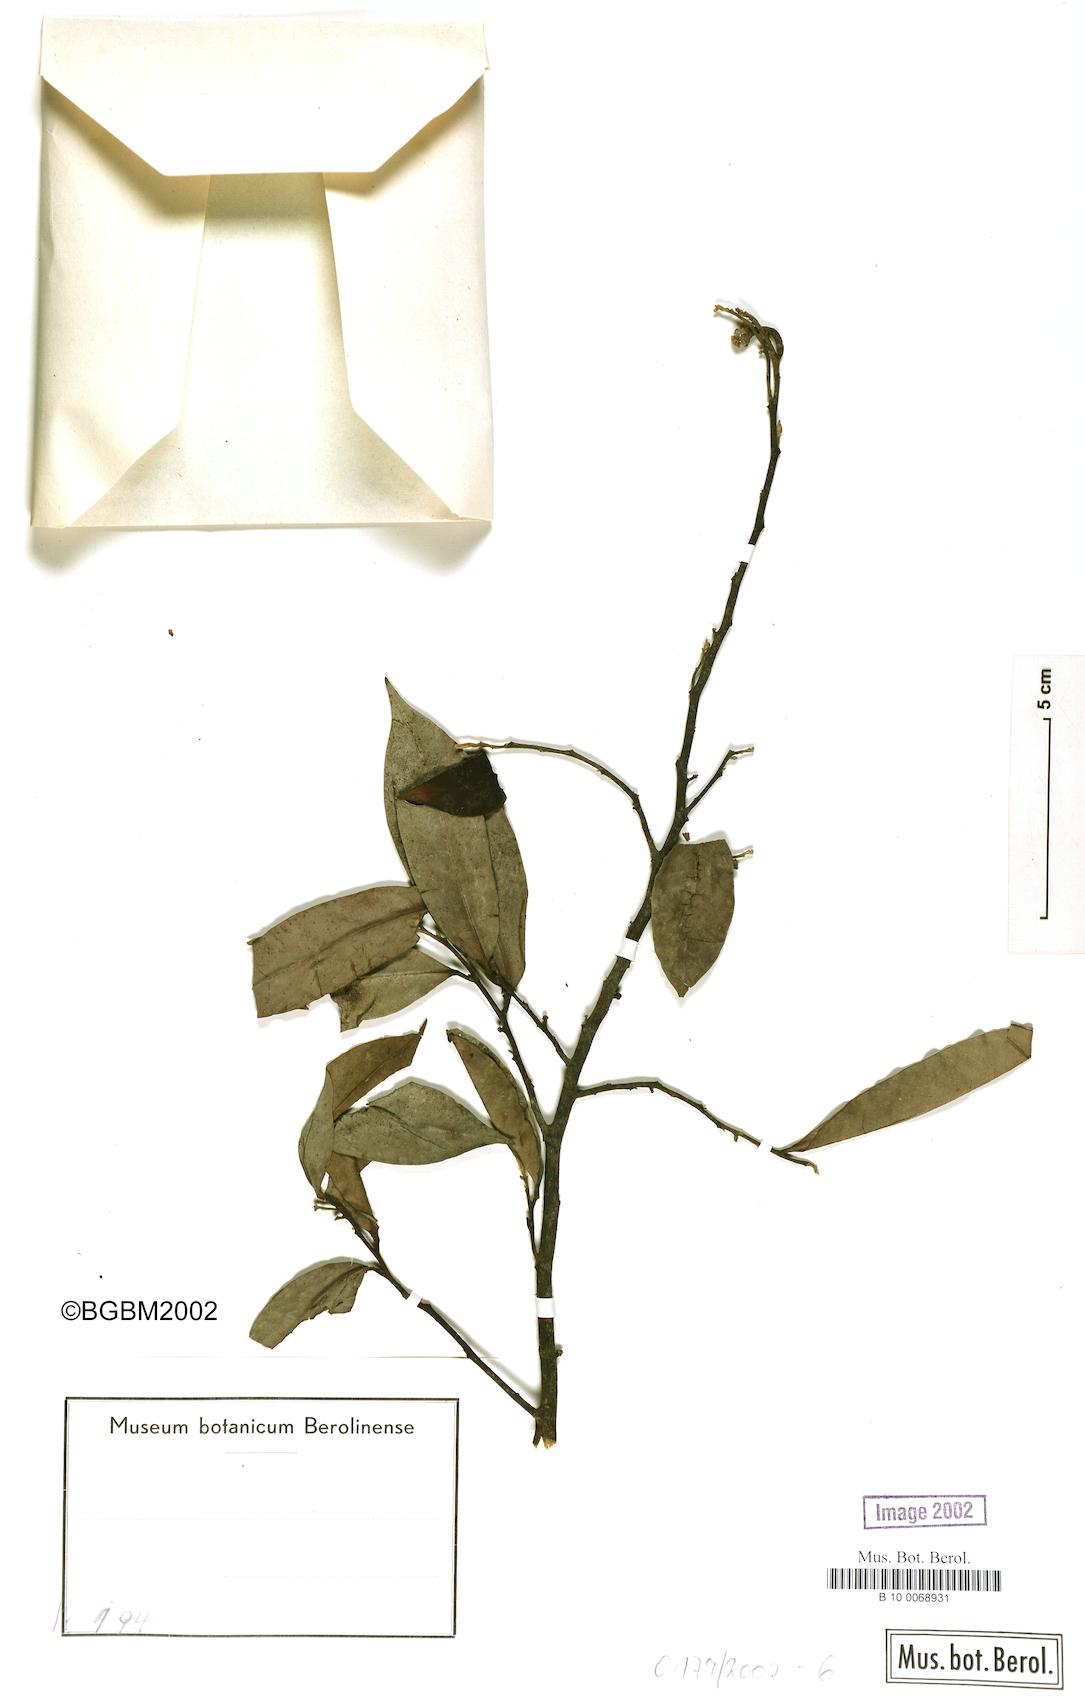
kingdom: Plantae
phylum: Tracheophyta
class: Magnoliopsida
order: Magnoliales
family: Annonaceae
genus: Annickia
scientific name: Annickia chlorantha
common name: African yellowwood
